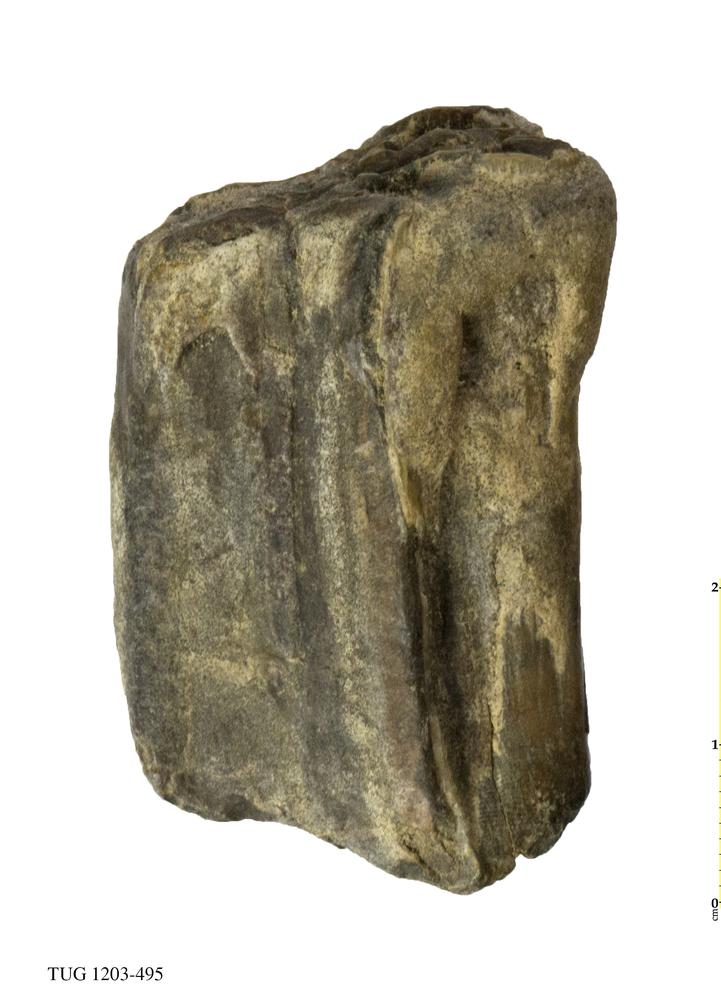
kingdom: Animalia
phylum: Chordata
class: Mammalia
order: Artiodactyla
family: Bovidae
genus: Bos
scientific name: Bos
